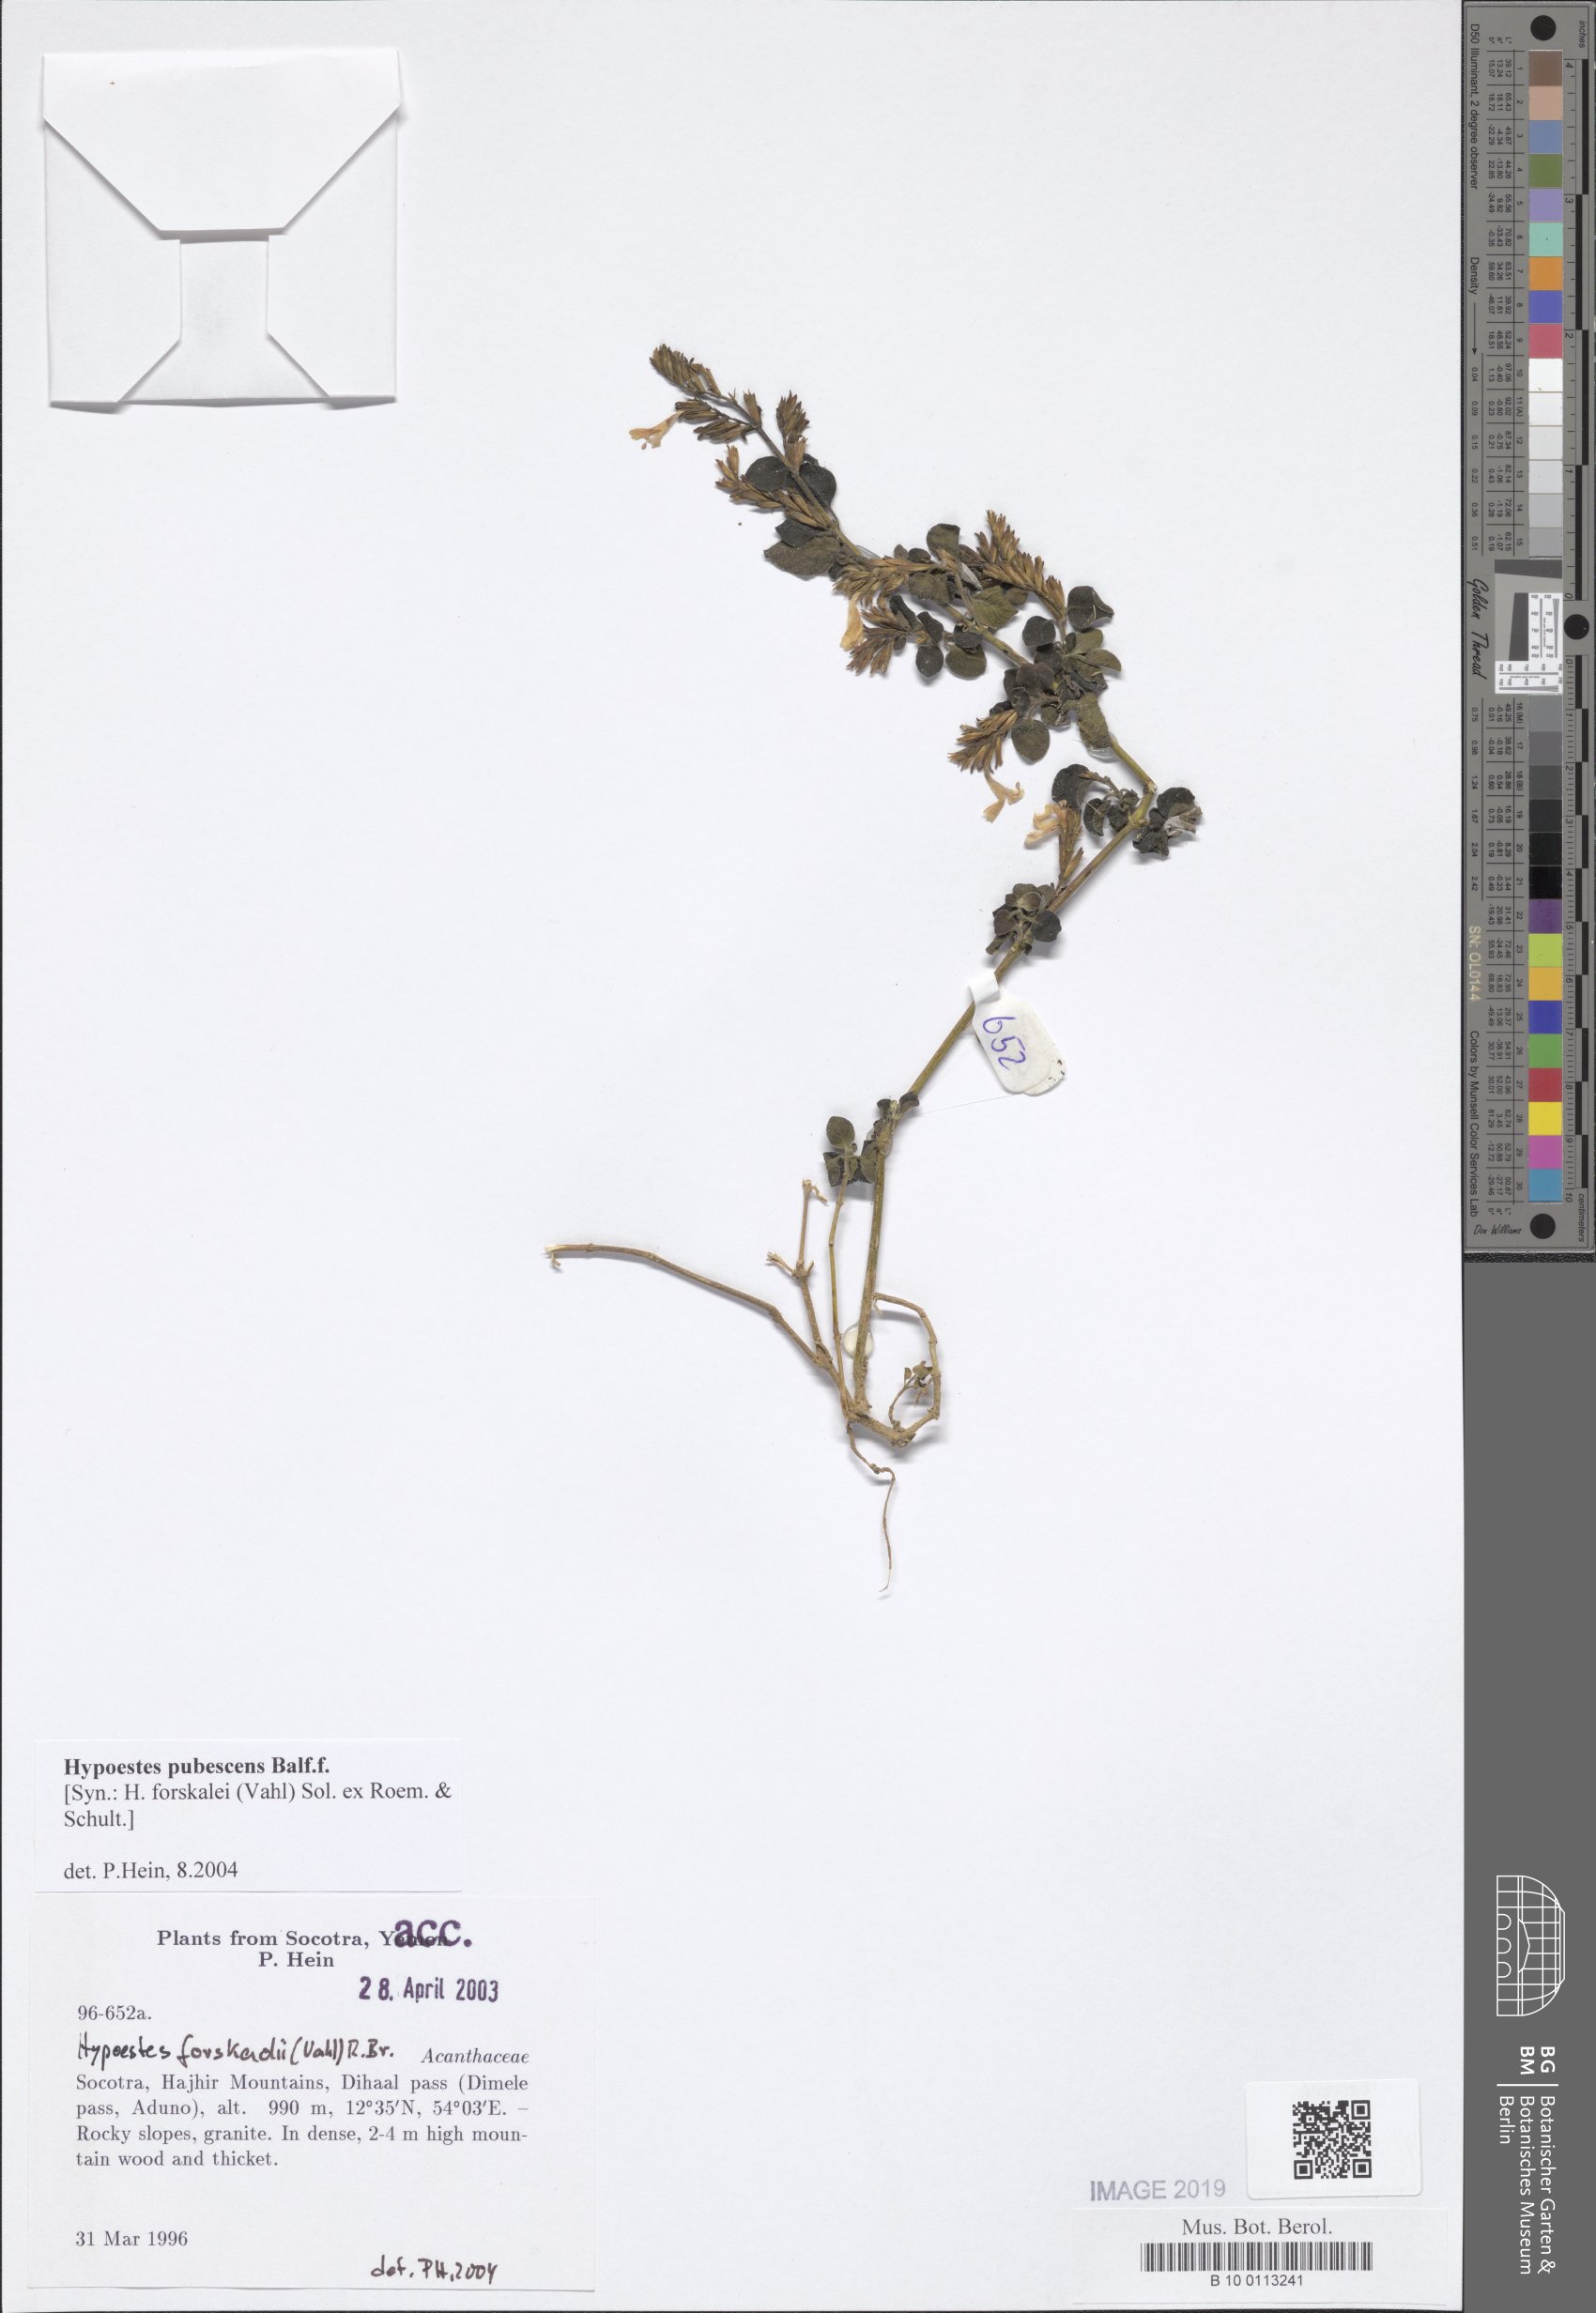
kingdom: Plantae
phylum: Tracheophyta
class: Magnoliopsida
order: Lamiales
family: Acanthaceae
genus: Hypoestes
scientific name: Hypoestes pubescens
